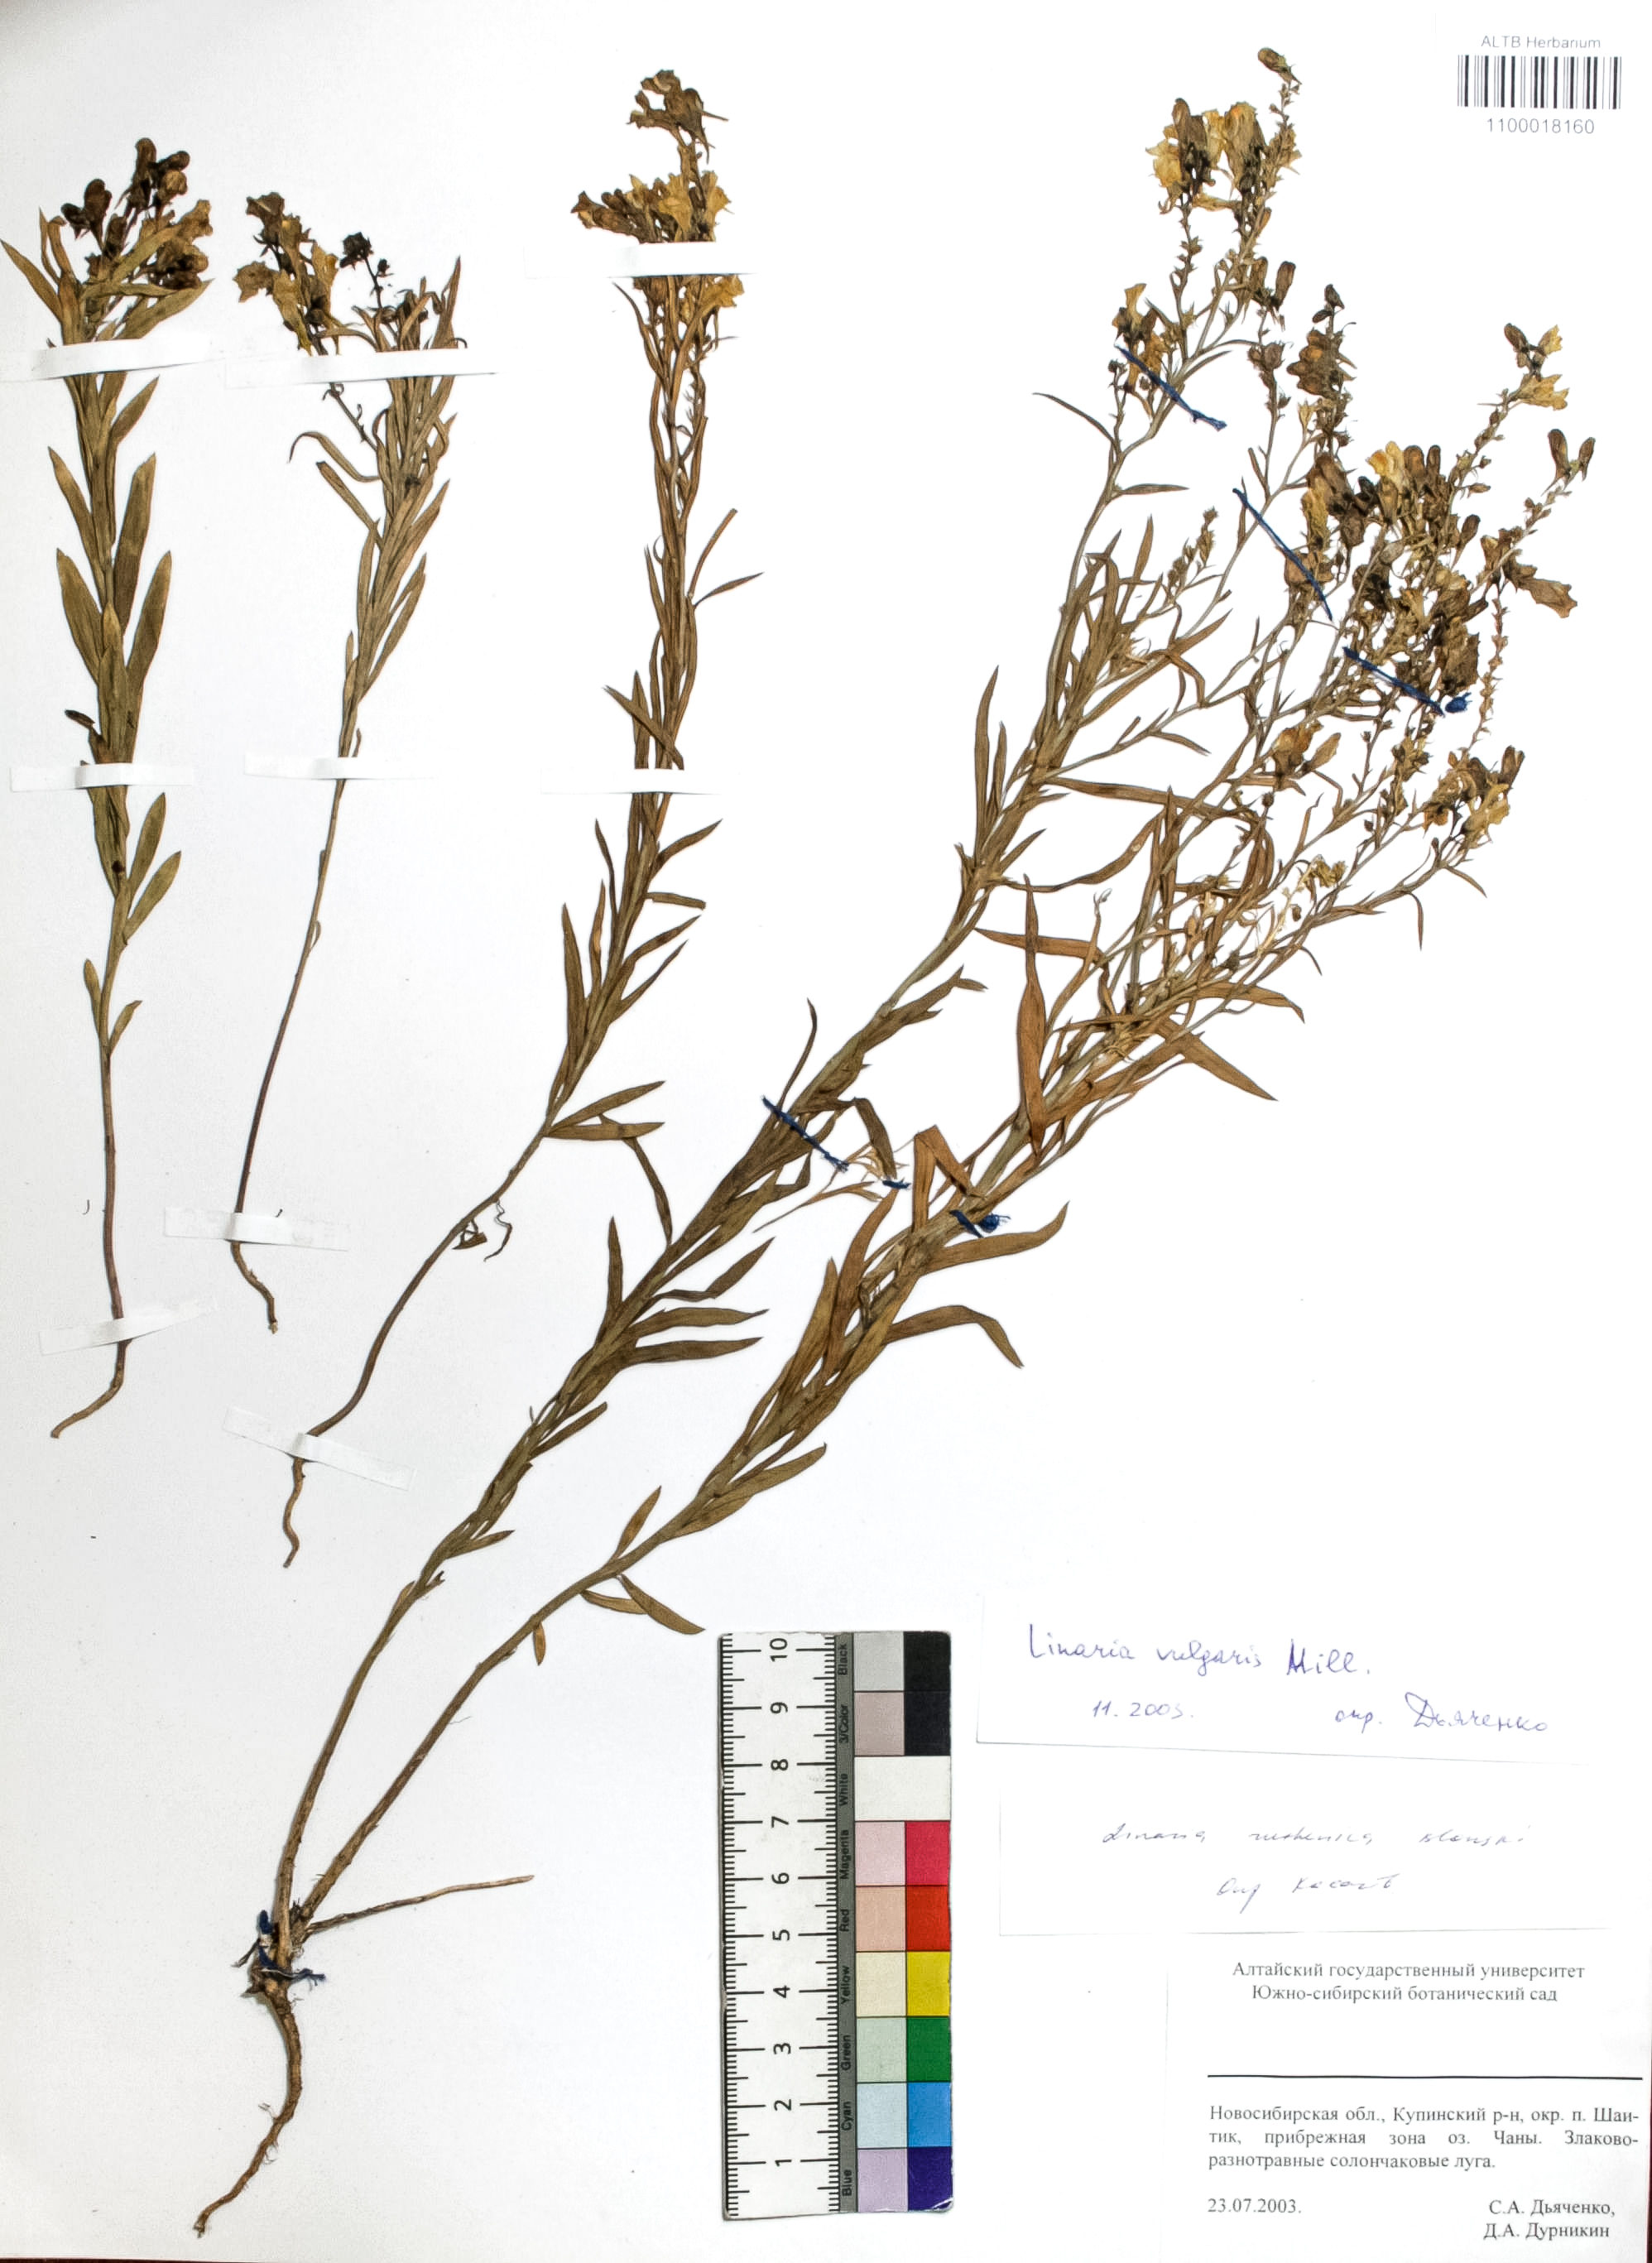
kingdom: Plantae
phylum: Tracheophyta
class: Magnoliopsida
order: Lamiales
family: Plantaginaceae
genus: Linaria
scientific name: Linaria vulgaris
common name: Butter and eggs
